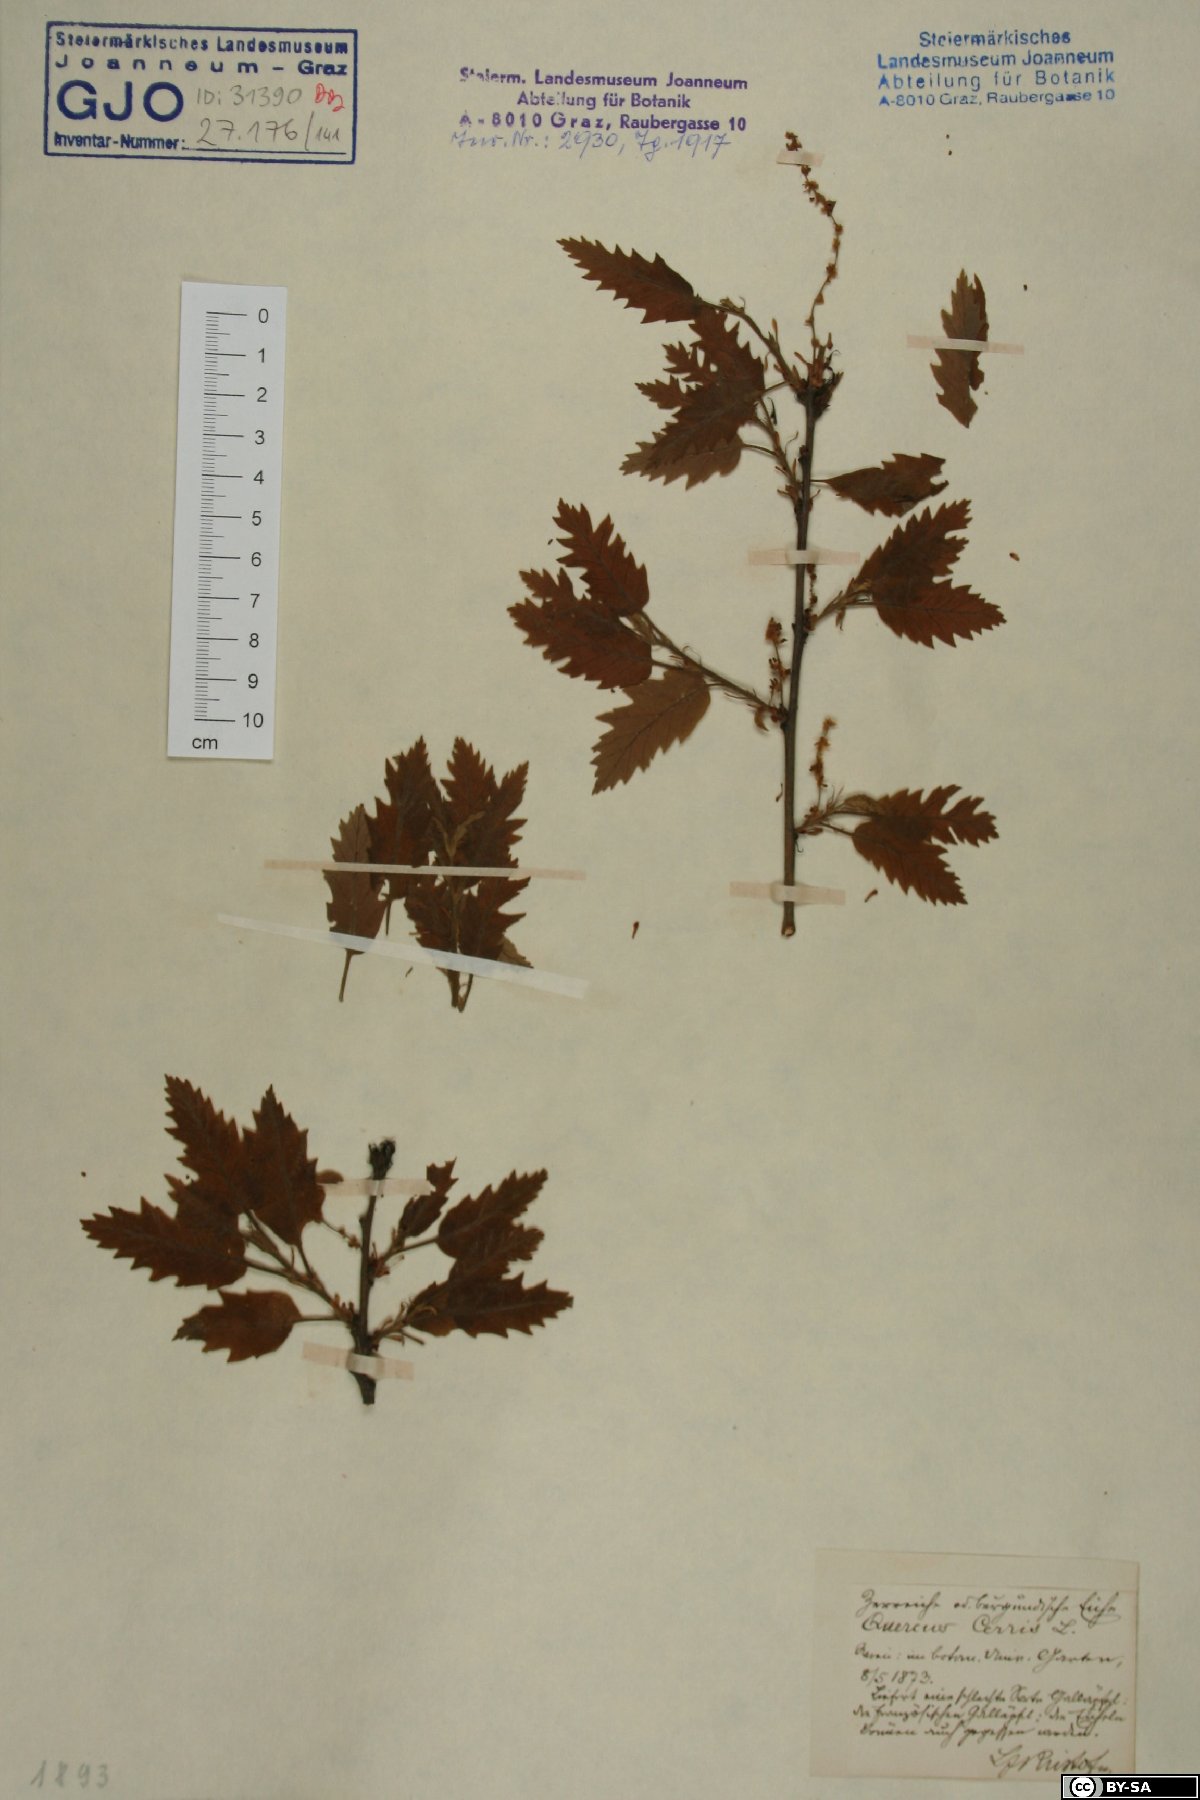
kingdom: Plantae
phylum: Tracheophyta
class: Magnoliopsida
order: Fagales
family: Fagaceae
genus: Quercus
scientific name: Quercus cerris
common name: Turkey oak
